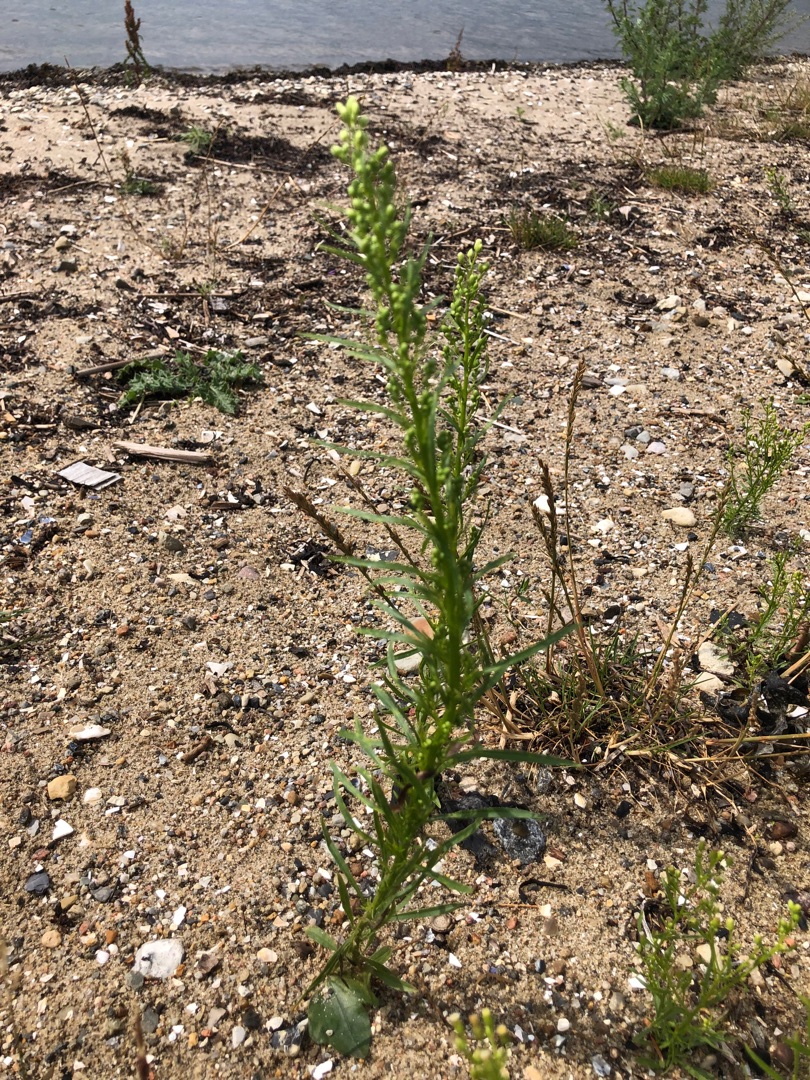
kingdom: Plantae
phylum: Tracheophyta
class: Magnoliopsida
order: Asterales
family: Asteraceae
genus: Erigeron
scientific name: Erigeron canadensis
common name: Kanadisk bakkestjerne
